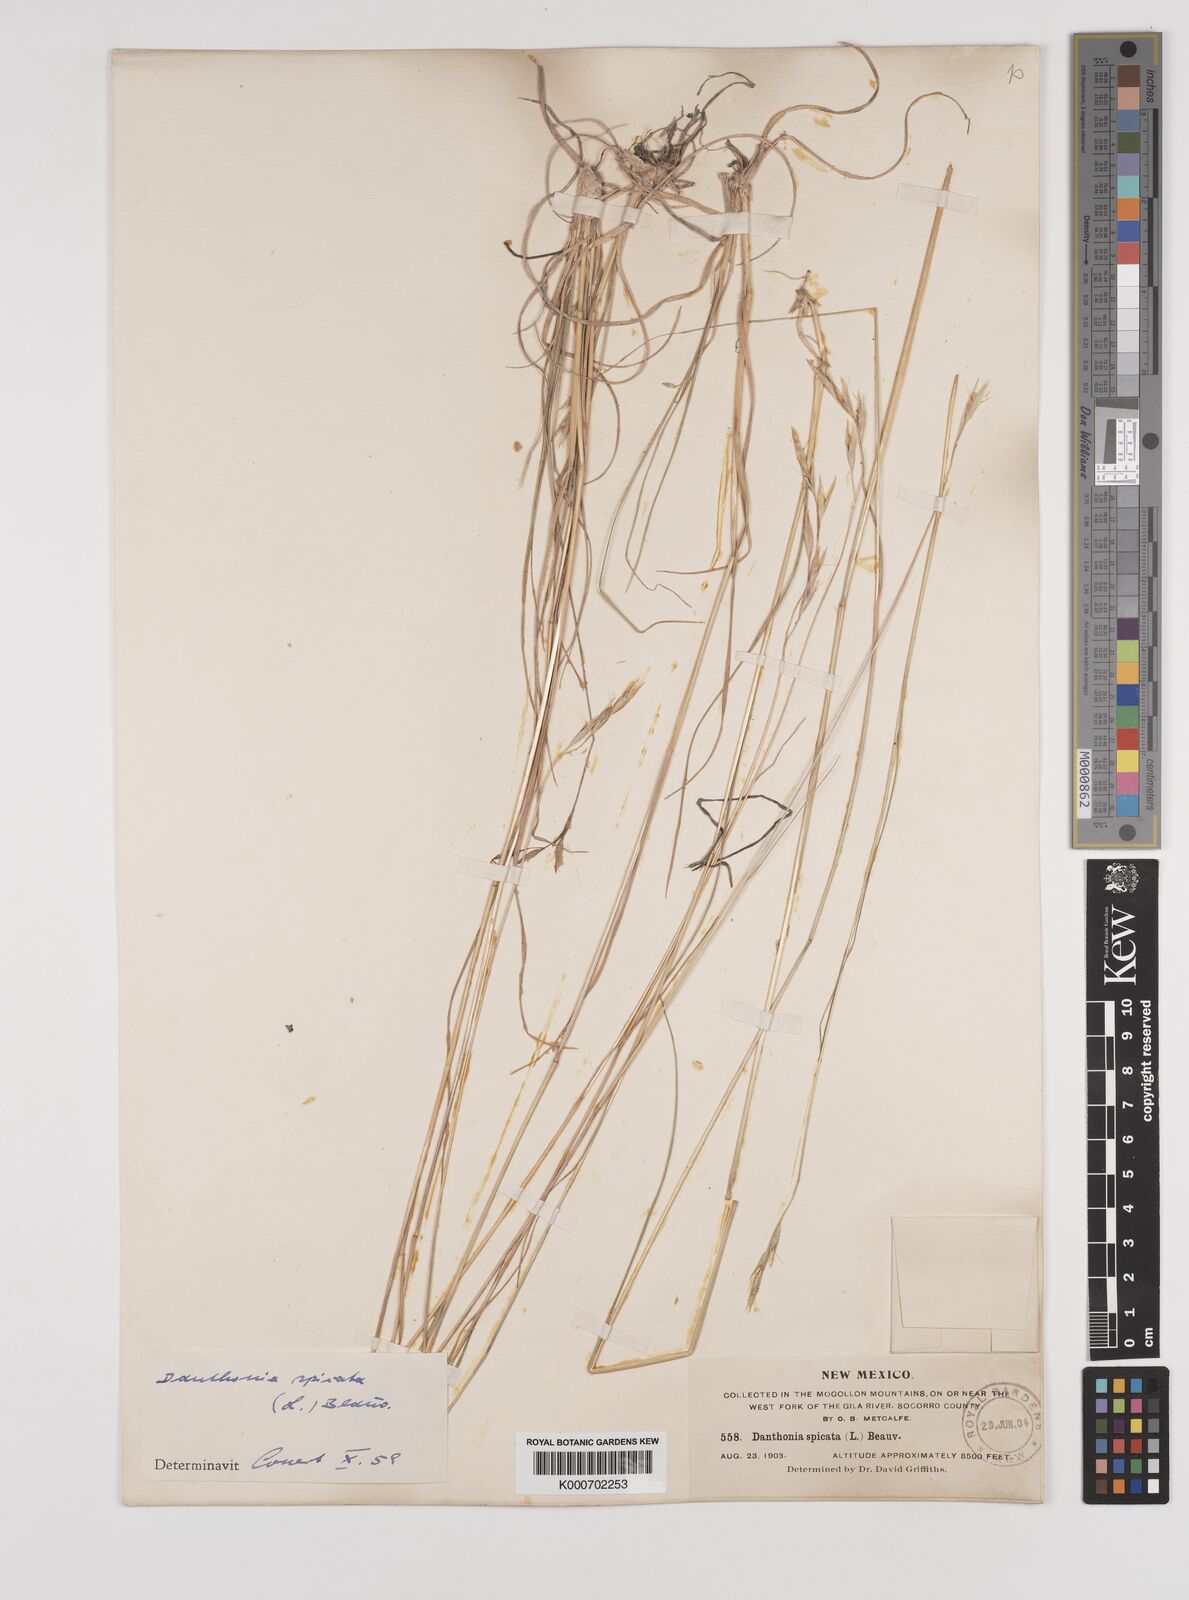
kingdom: Plantae
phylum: Tracheophyta
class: Liliopsida
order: Poales
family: Poaceae
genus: Danthonia
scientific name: Danthonia spicata
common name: Common wild oatgrass
